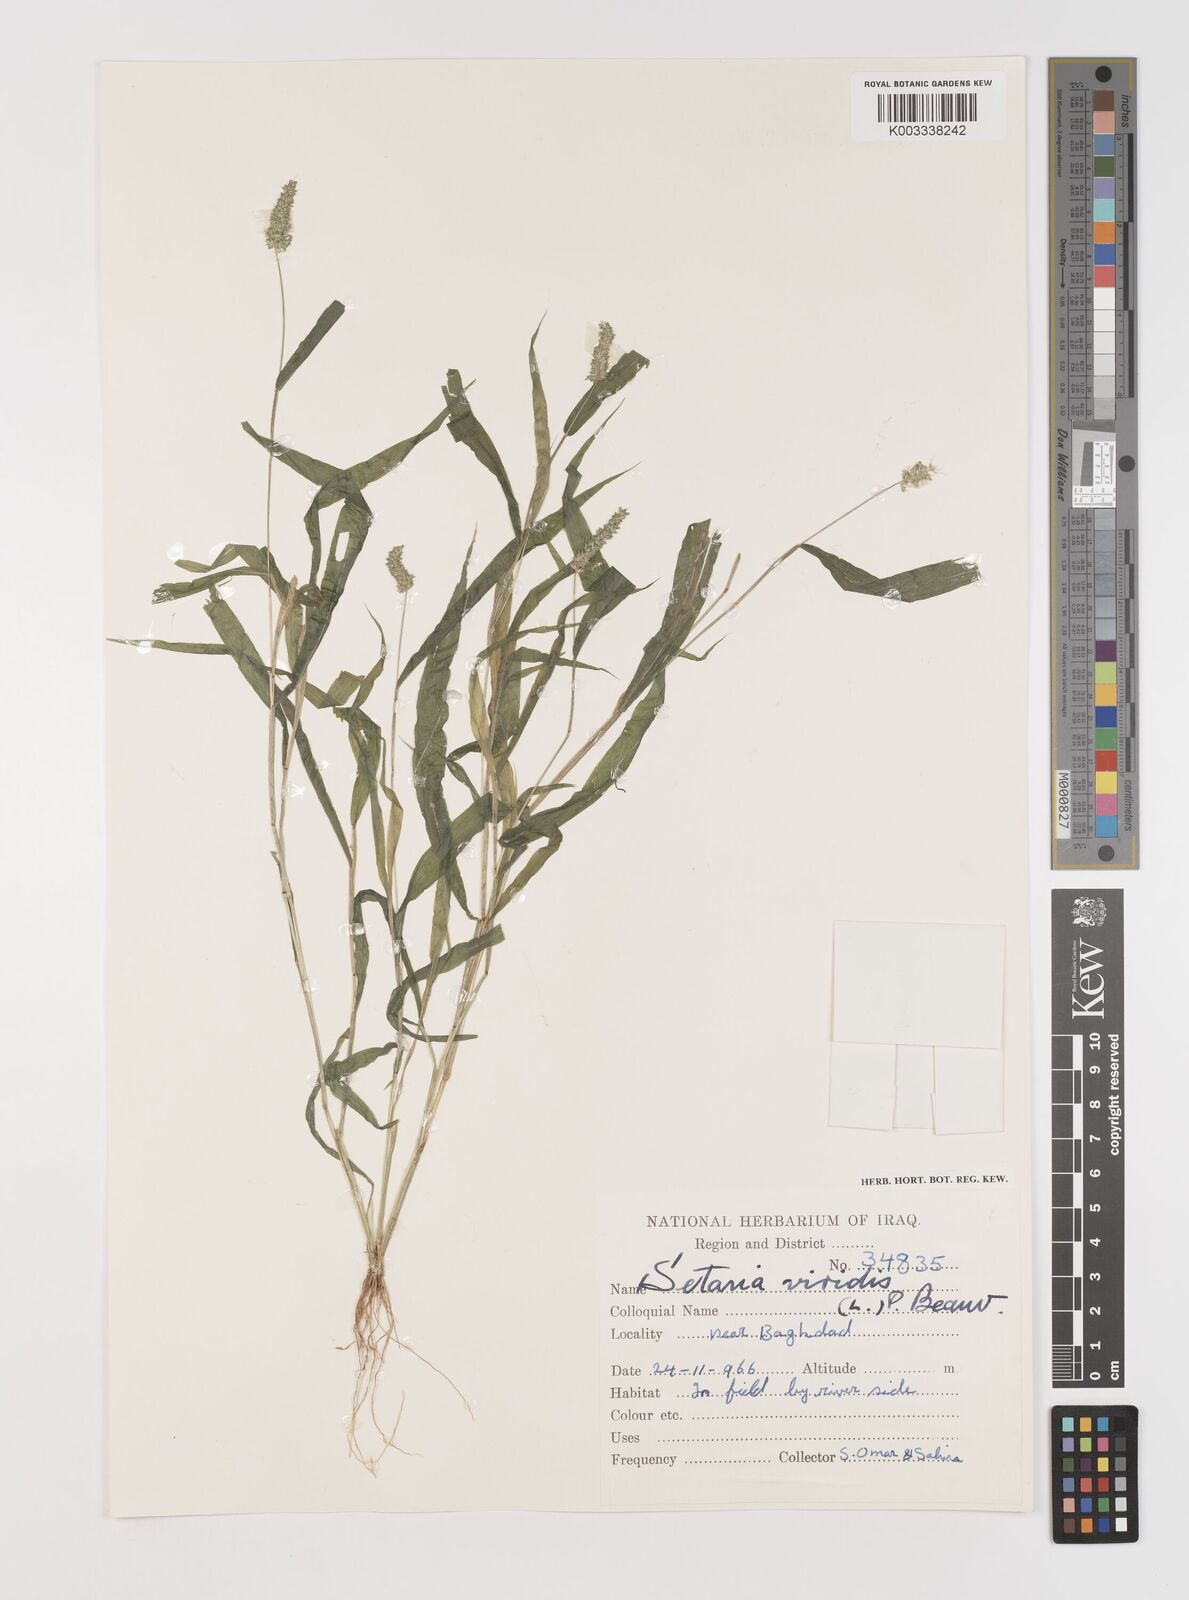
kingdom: Plantae
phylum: Tracheophyta
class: Liliopsida
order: Poales
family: Poaceae
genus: Setaria
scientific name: Setaria verticillata
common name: Hooked bristlegrass
